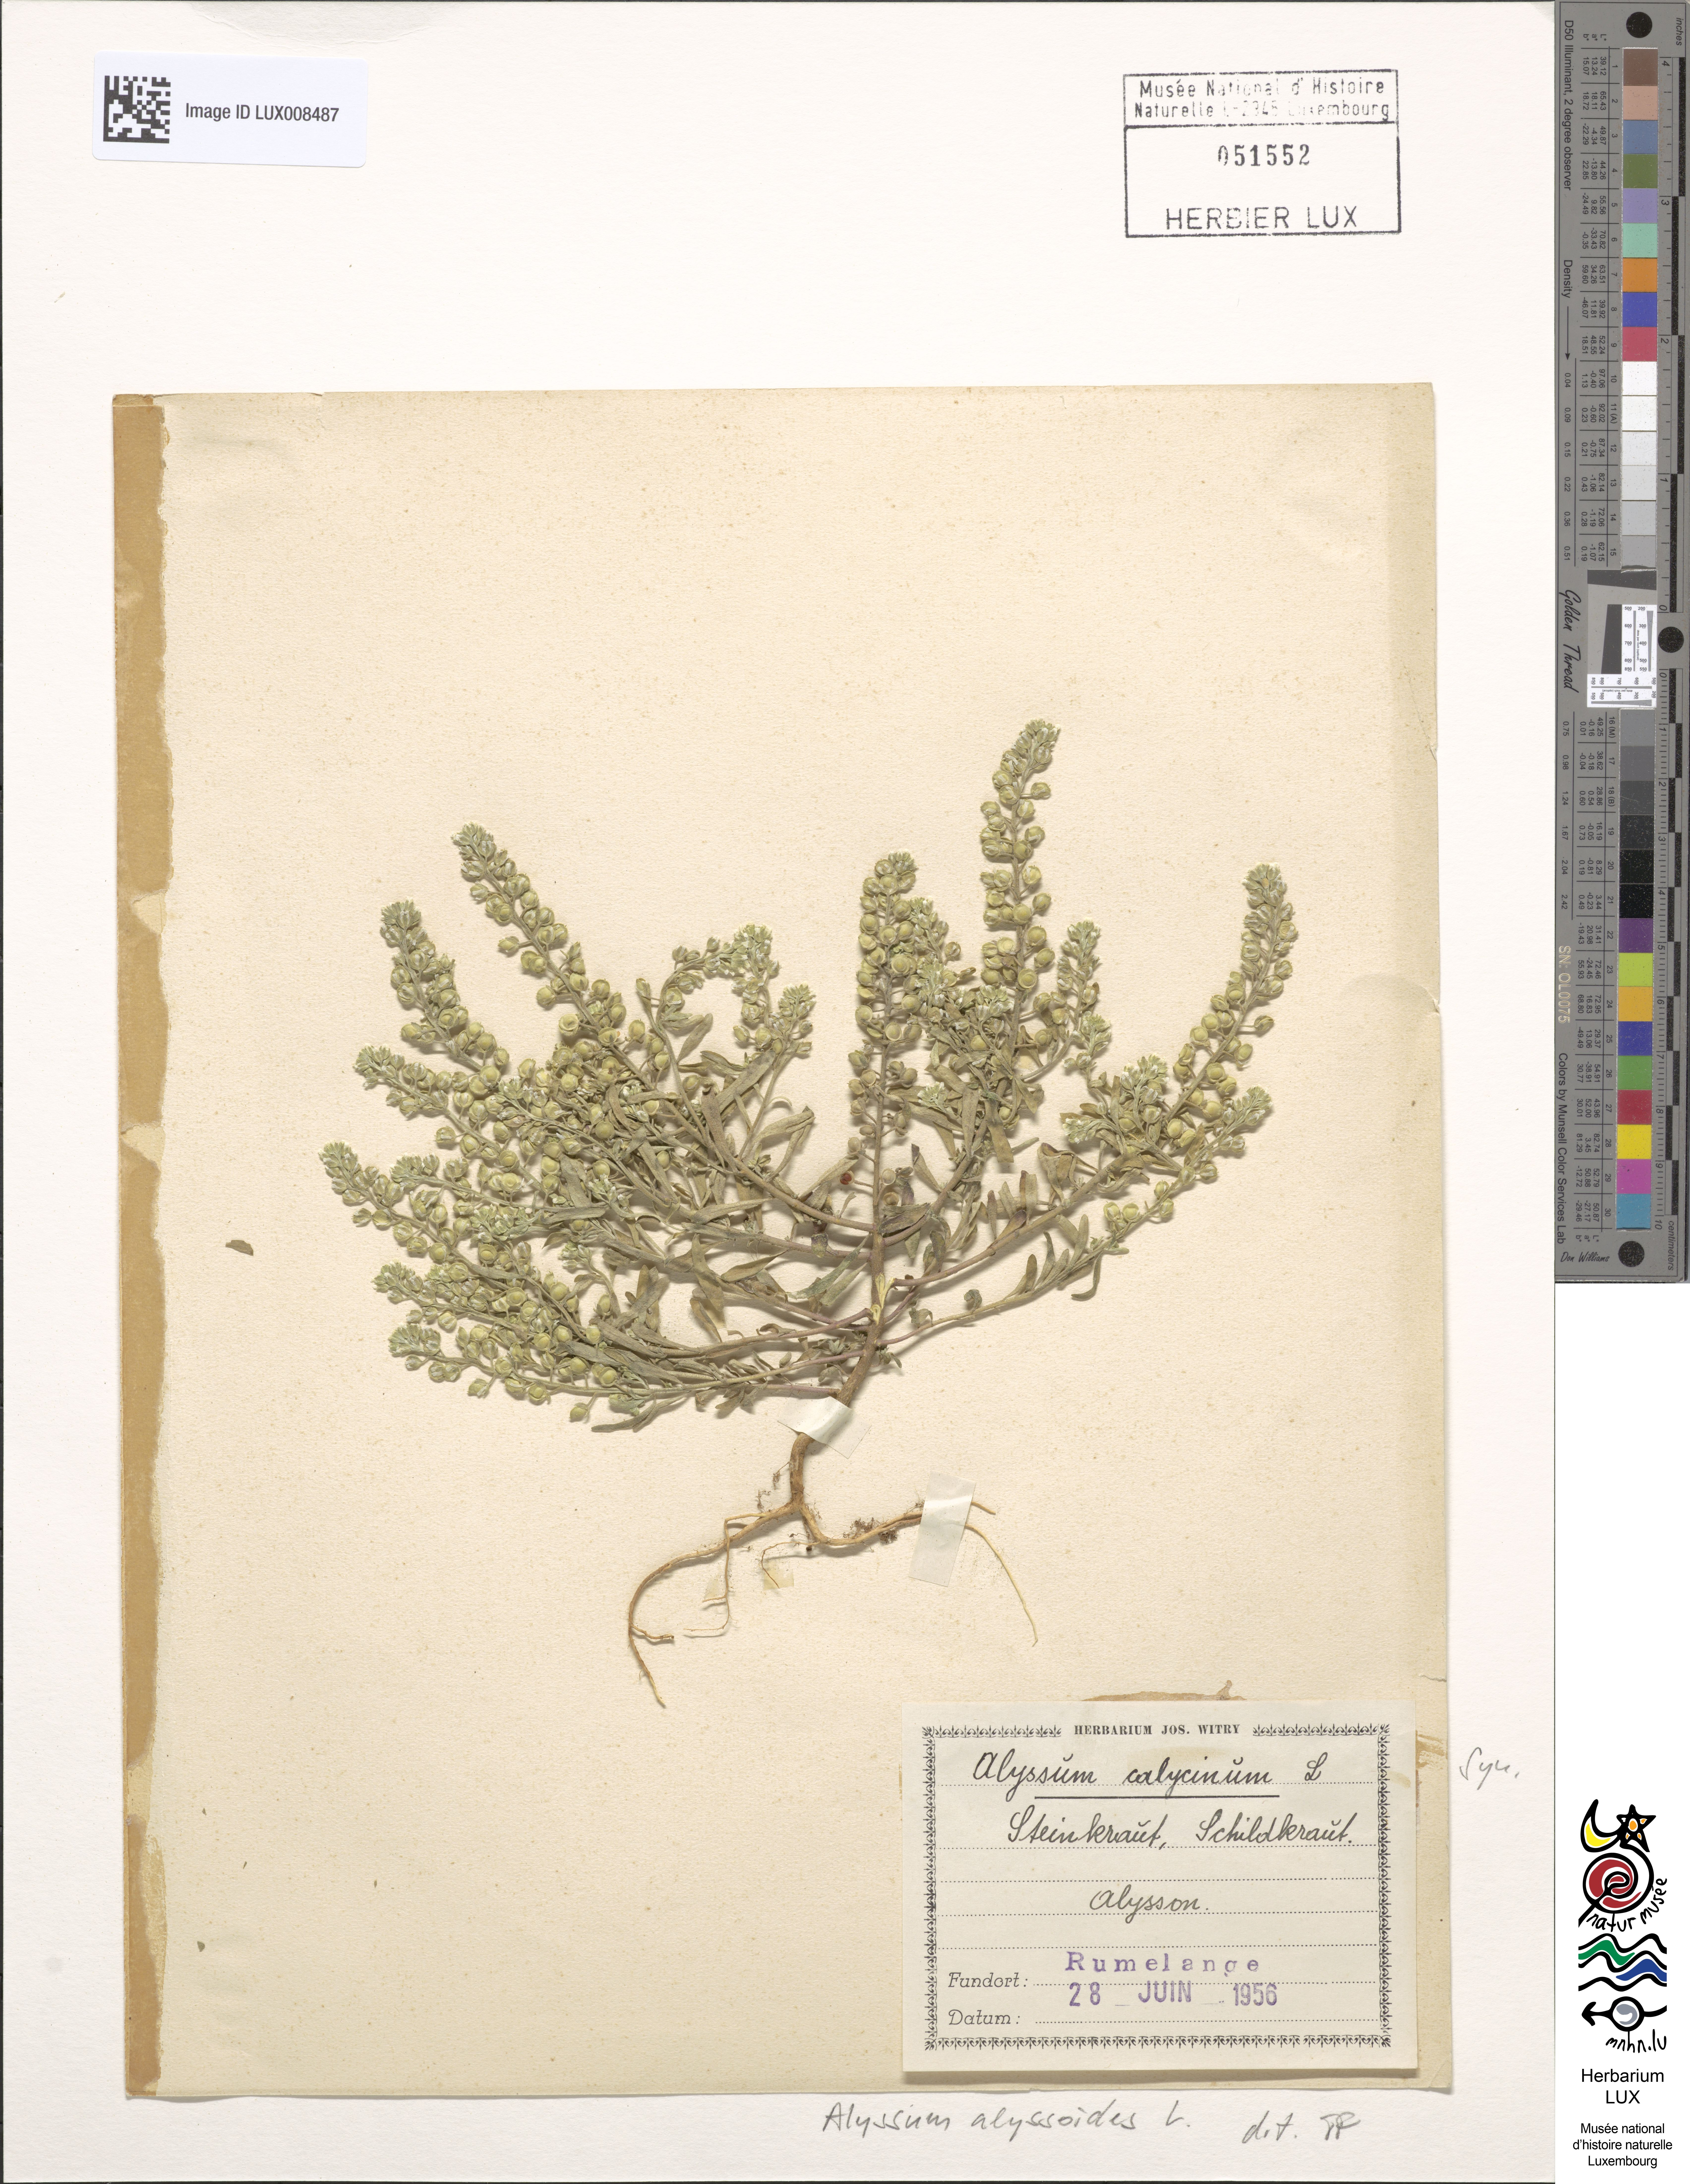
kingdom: Plantae
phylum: Tracheophyta
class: Magnoliopsida
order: Brassicales
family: Brassicaceae
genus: Alyssum
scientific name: Alyssum alyssoides
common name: Small alison
